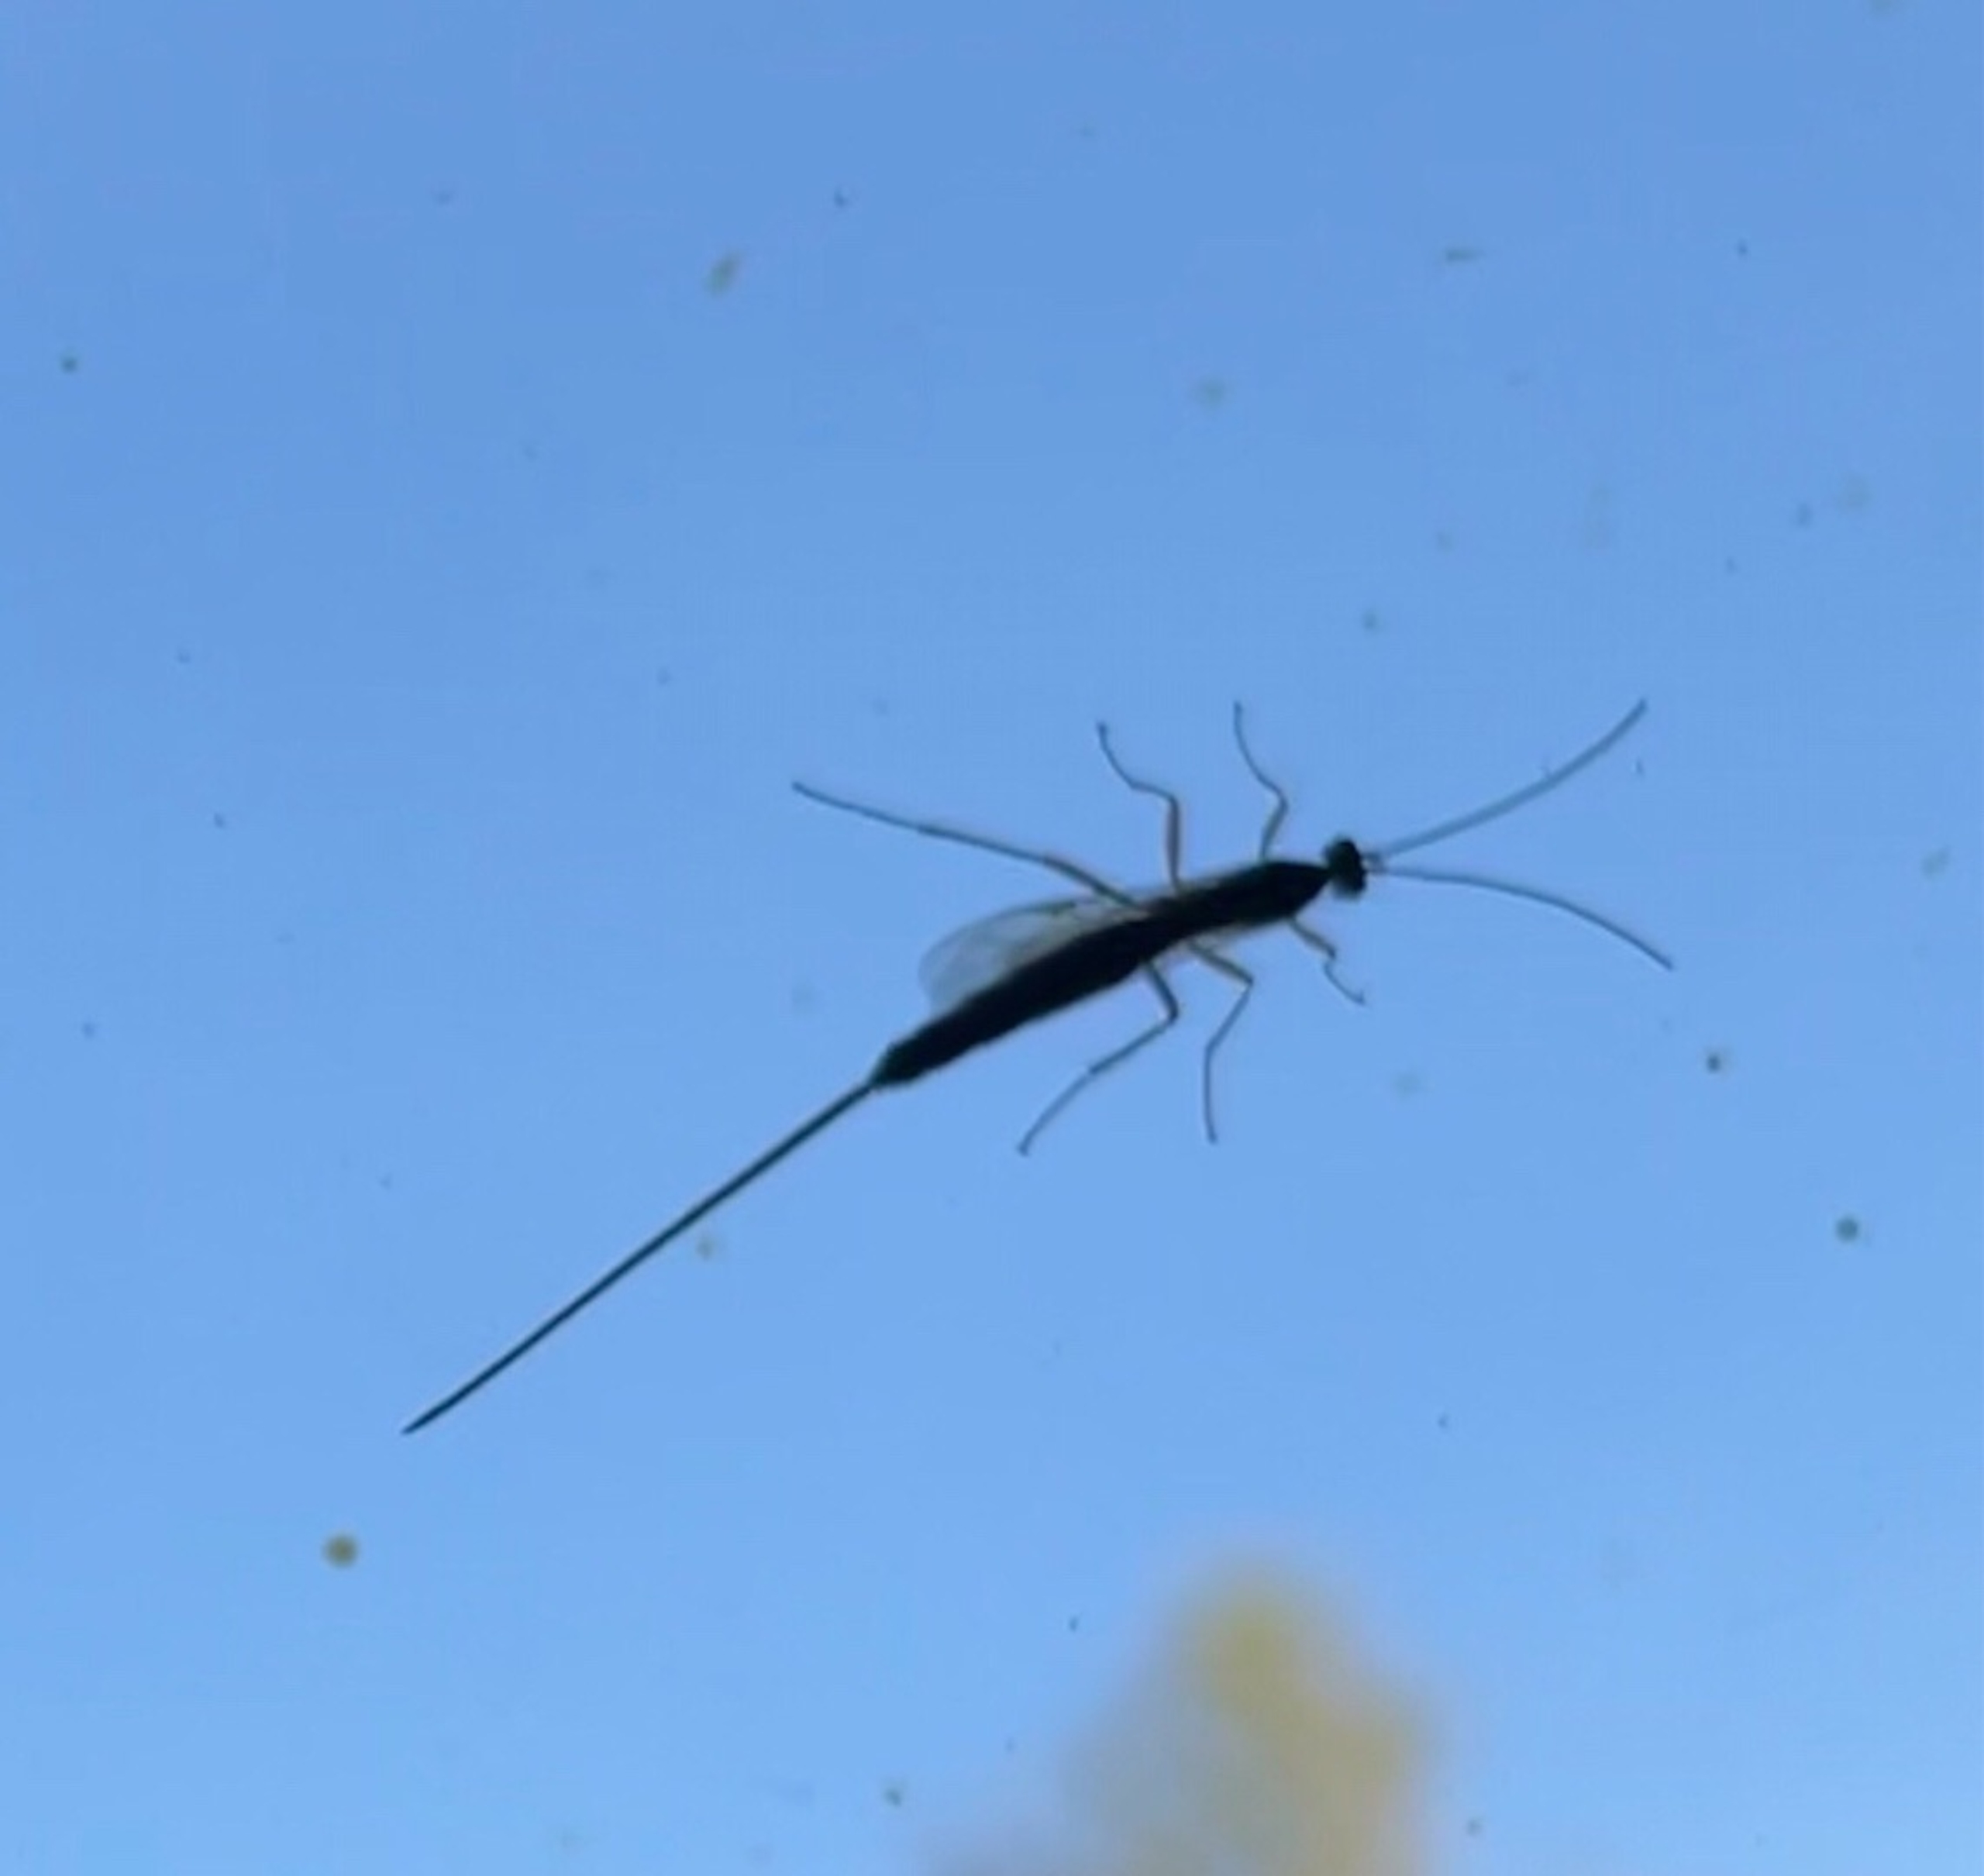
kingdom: Animalia
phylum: Arthropoda
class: Insecta
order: Hymenoptera
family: Ichneumonidae
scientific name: Ichneumonidae
